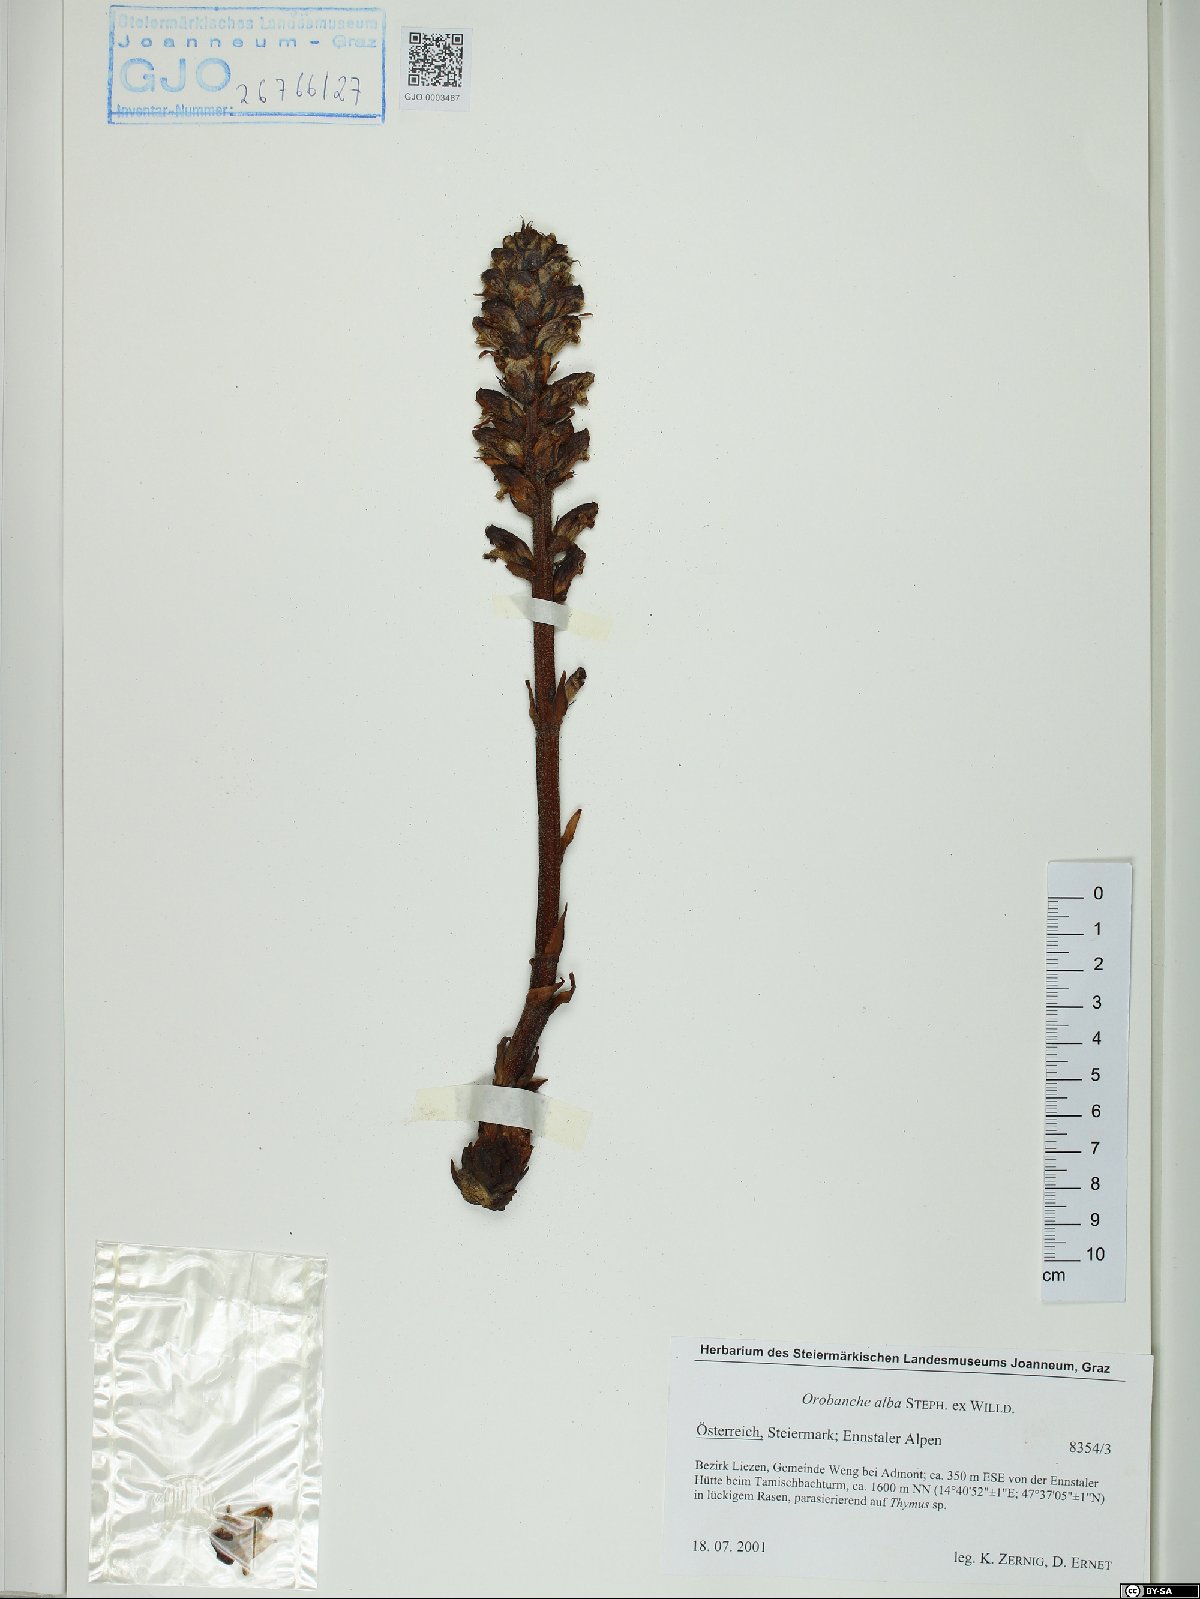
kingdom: Plantae
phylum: Tracheophyta
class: Magnoliopsida
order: Lamiales
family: Orobanchaceae
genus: Orobanche
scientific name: Orobanche alba
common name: Thyme broomrape
